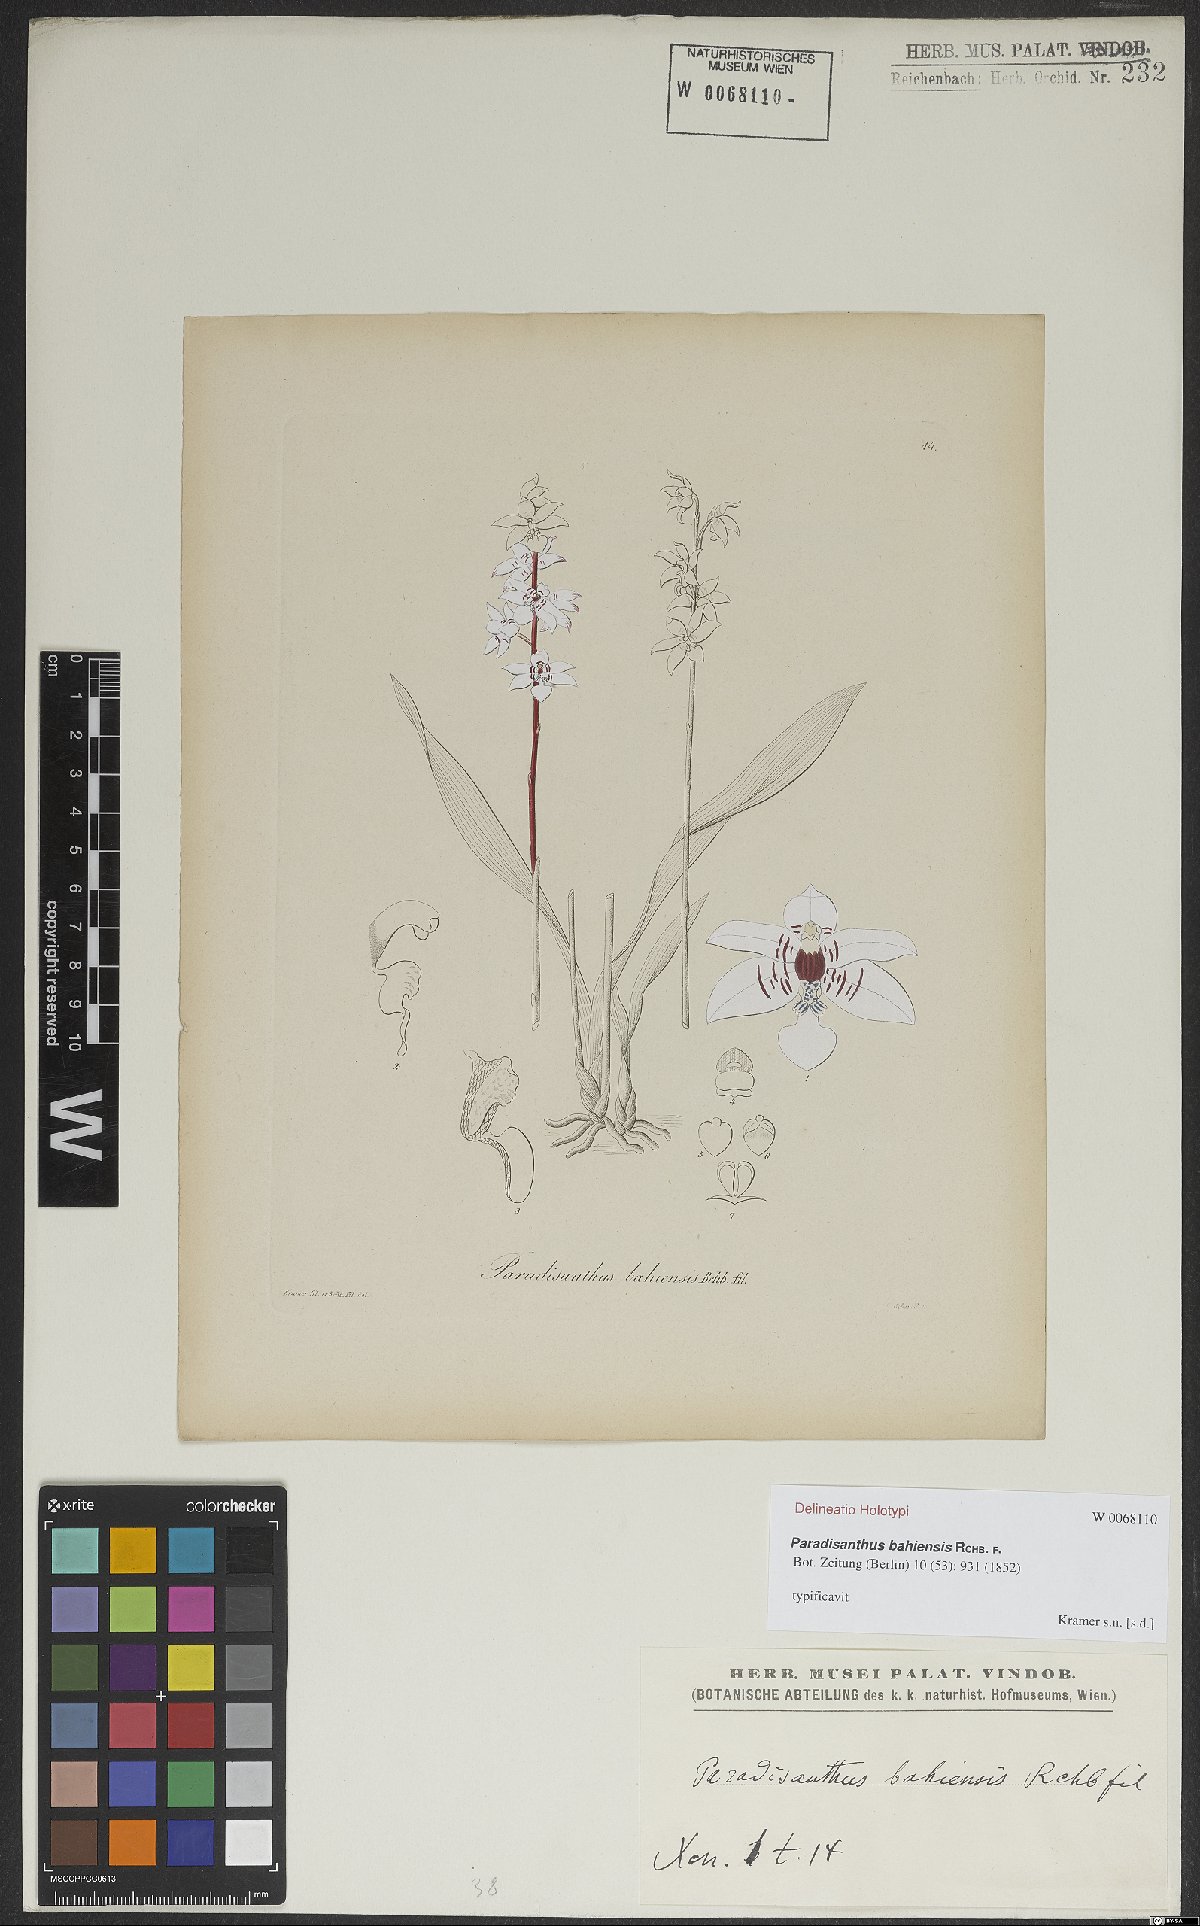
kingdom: Plantae
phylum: Tracheophyta
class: Liliopsida
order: Asparagales
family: Orchidaceae
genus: Paradisanthus
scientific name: Paradisanthus bahiensis
